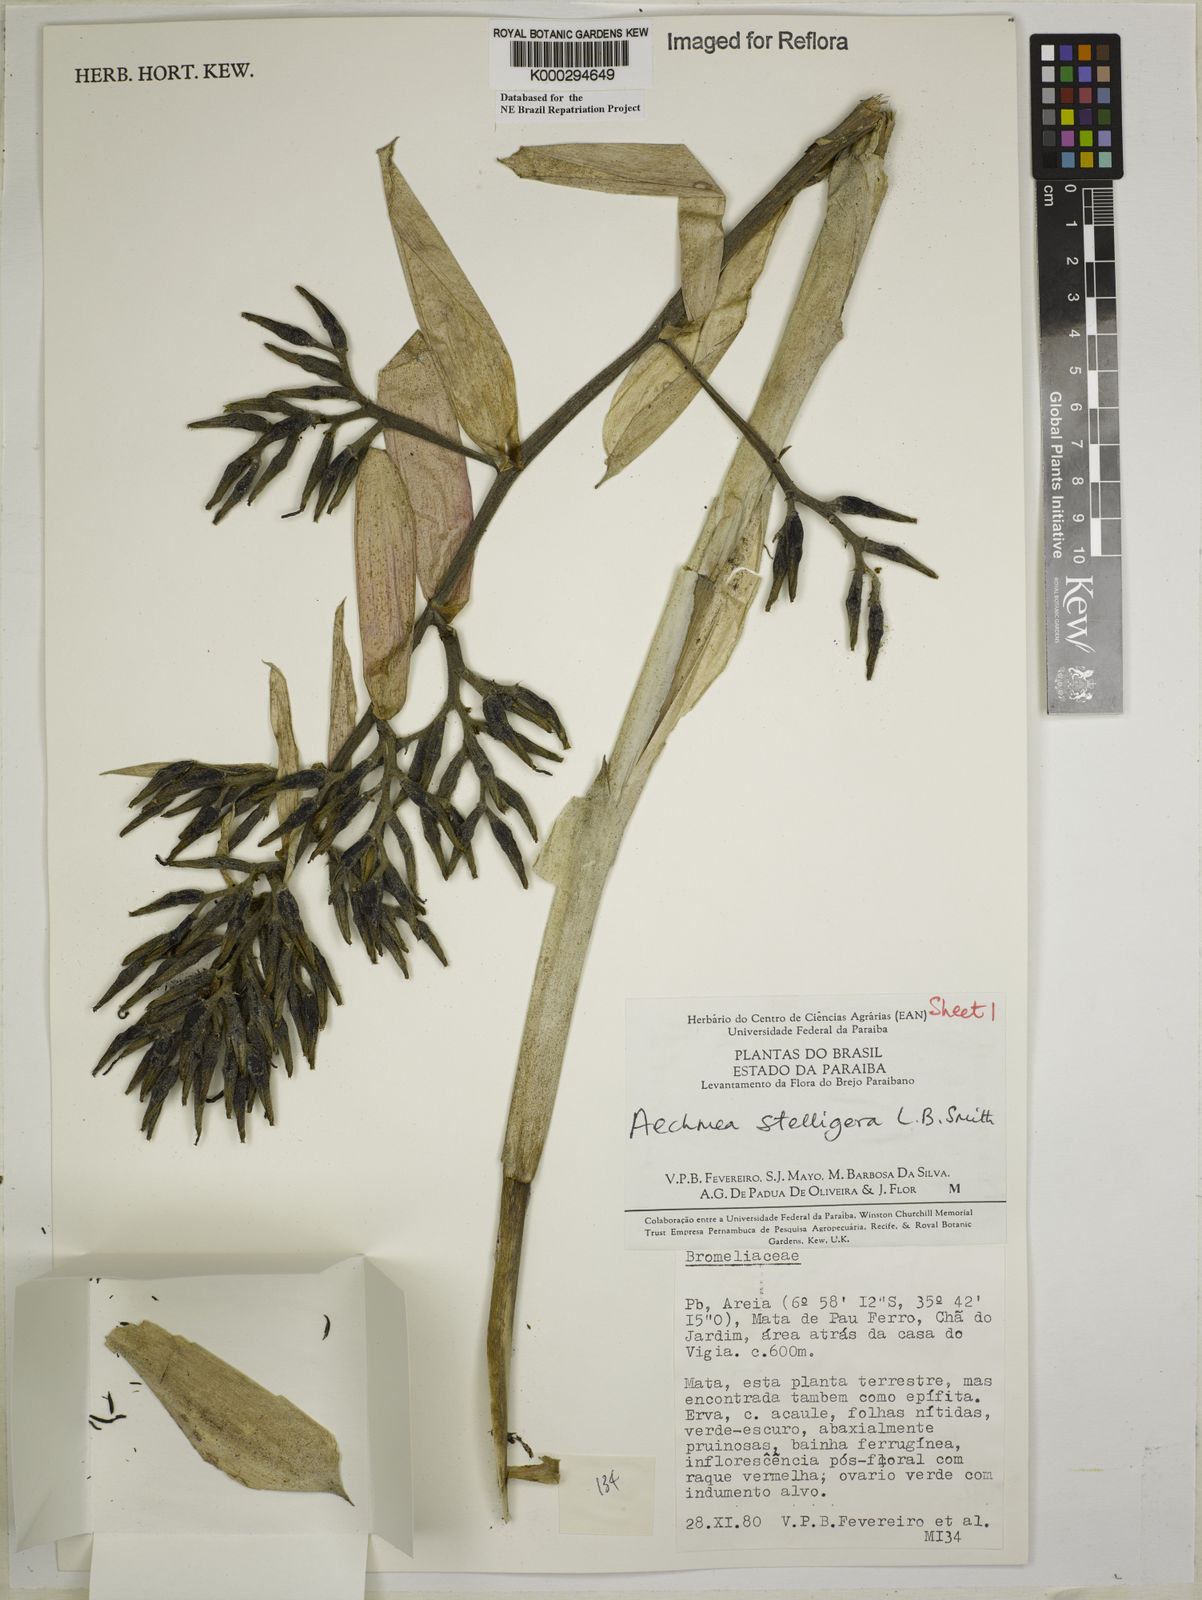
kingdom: Plantae
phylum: Tracheophyta
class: Liliopsida
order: Poales
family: Bromeliaceae
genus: Aechmea
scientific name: Aechmea stelligera
